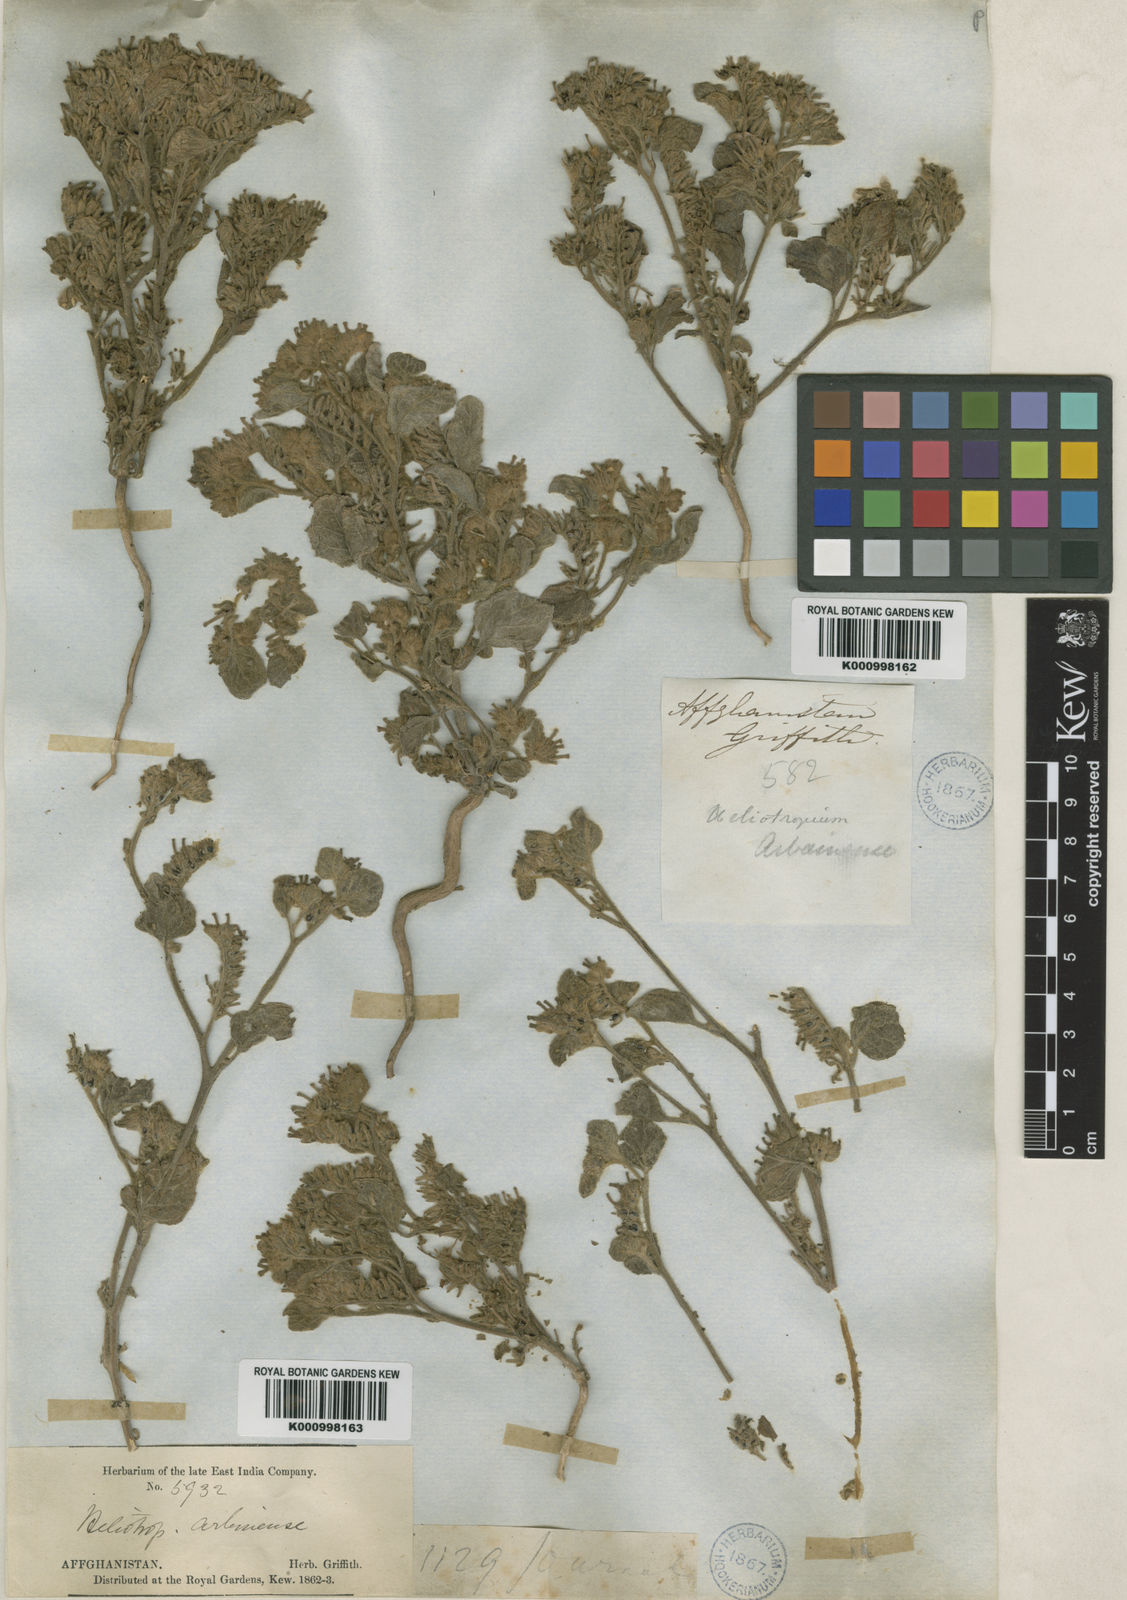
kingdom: Plantae
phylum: Tracheophyta
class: Magnoliopsida
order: Boraginales
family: Heliotropiaceae
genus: Heliotropium
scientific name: Heliotropium griffithii
